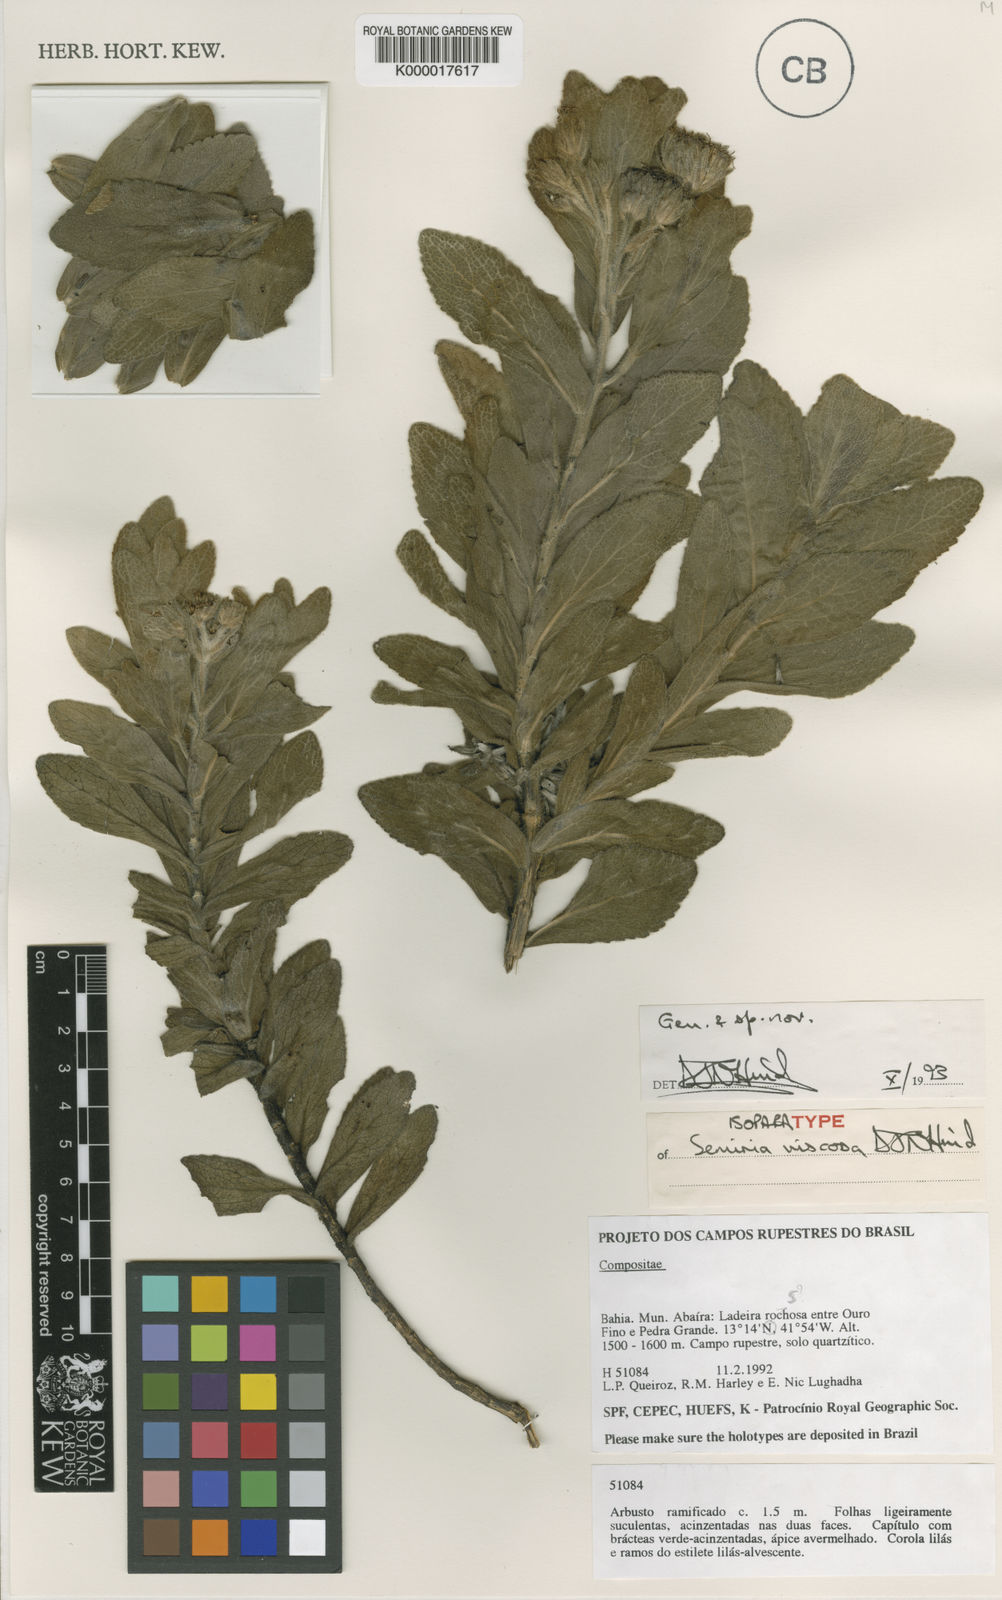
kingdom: Plantae
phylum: Tracheophyta
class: Magnoliopsida
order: Asterales
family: Asteraceae
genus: Semiria
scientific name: Semiria viscosa
